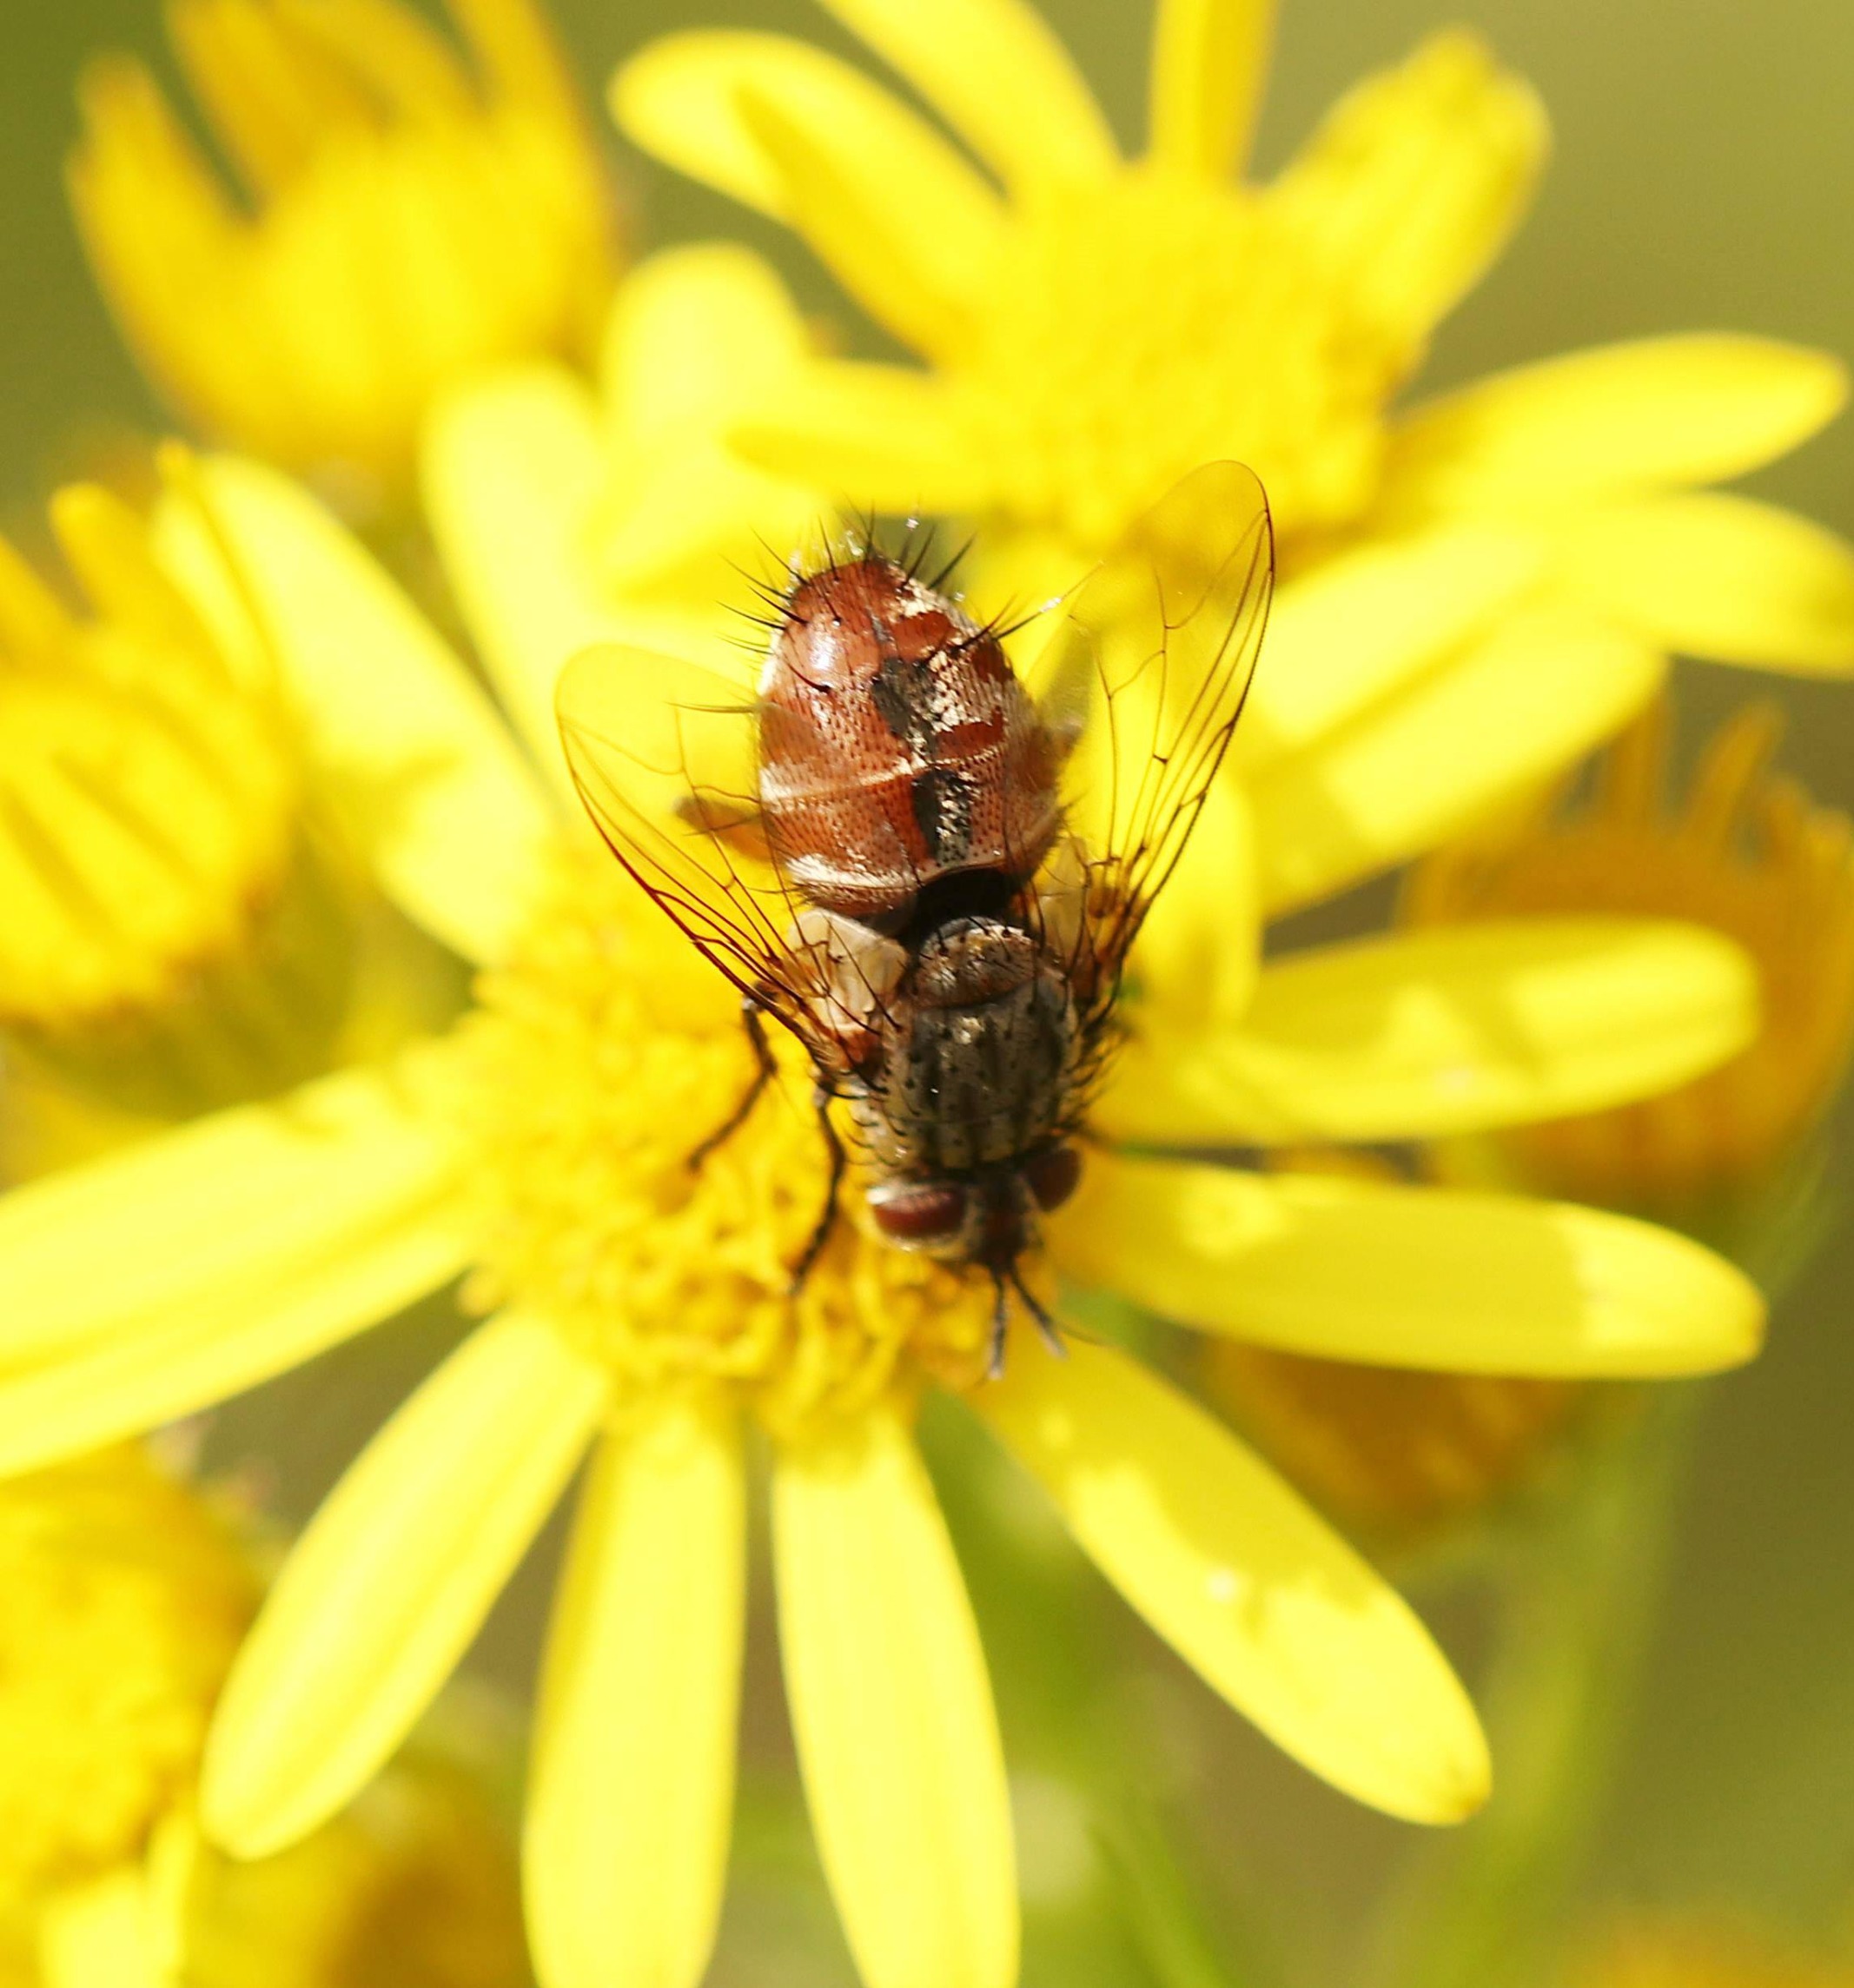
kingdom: Animalia
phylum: Arthropoda
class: Insecta
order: Diptera
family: Tachinidae
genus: Linnaemya
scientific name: Linnaemya vulpina
